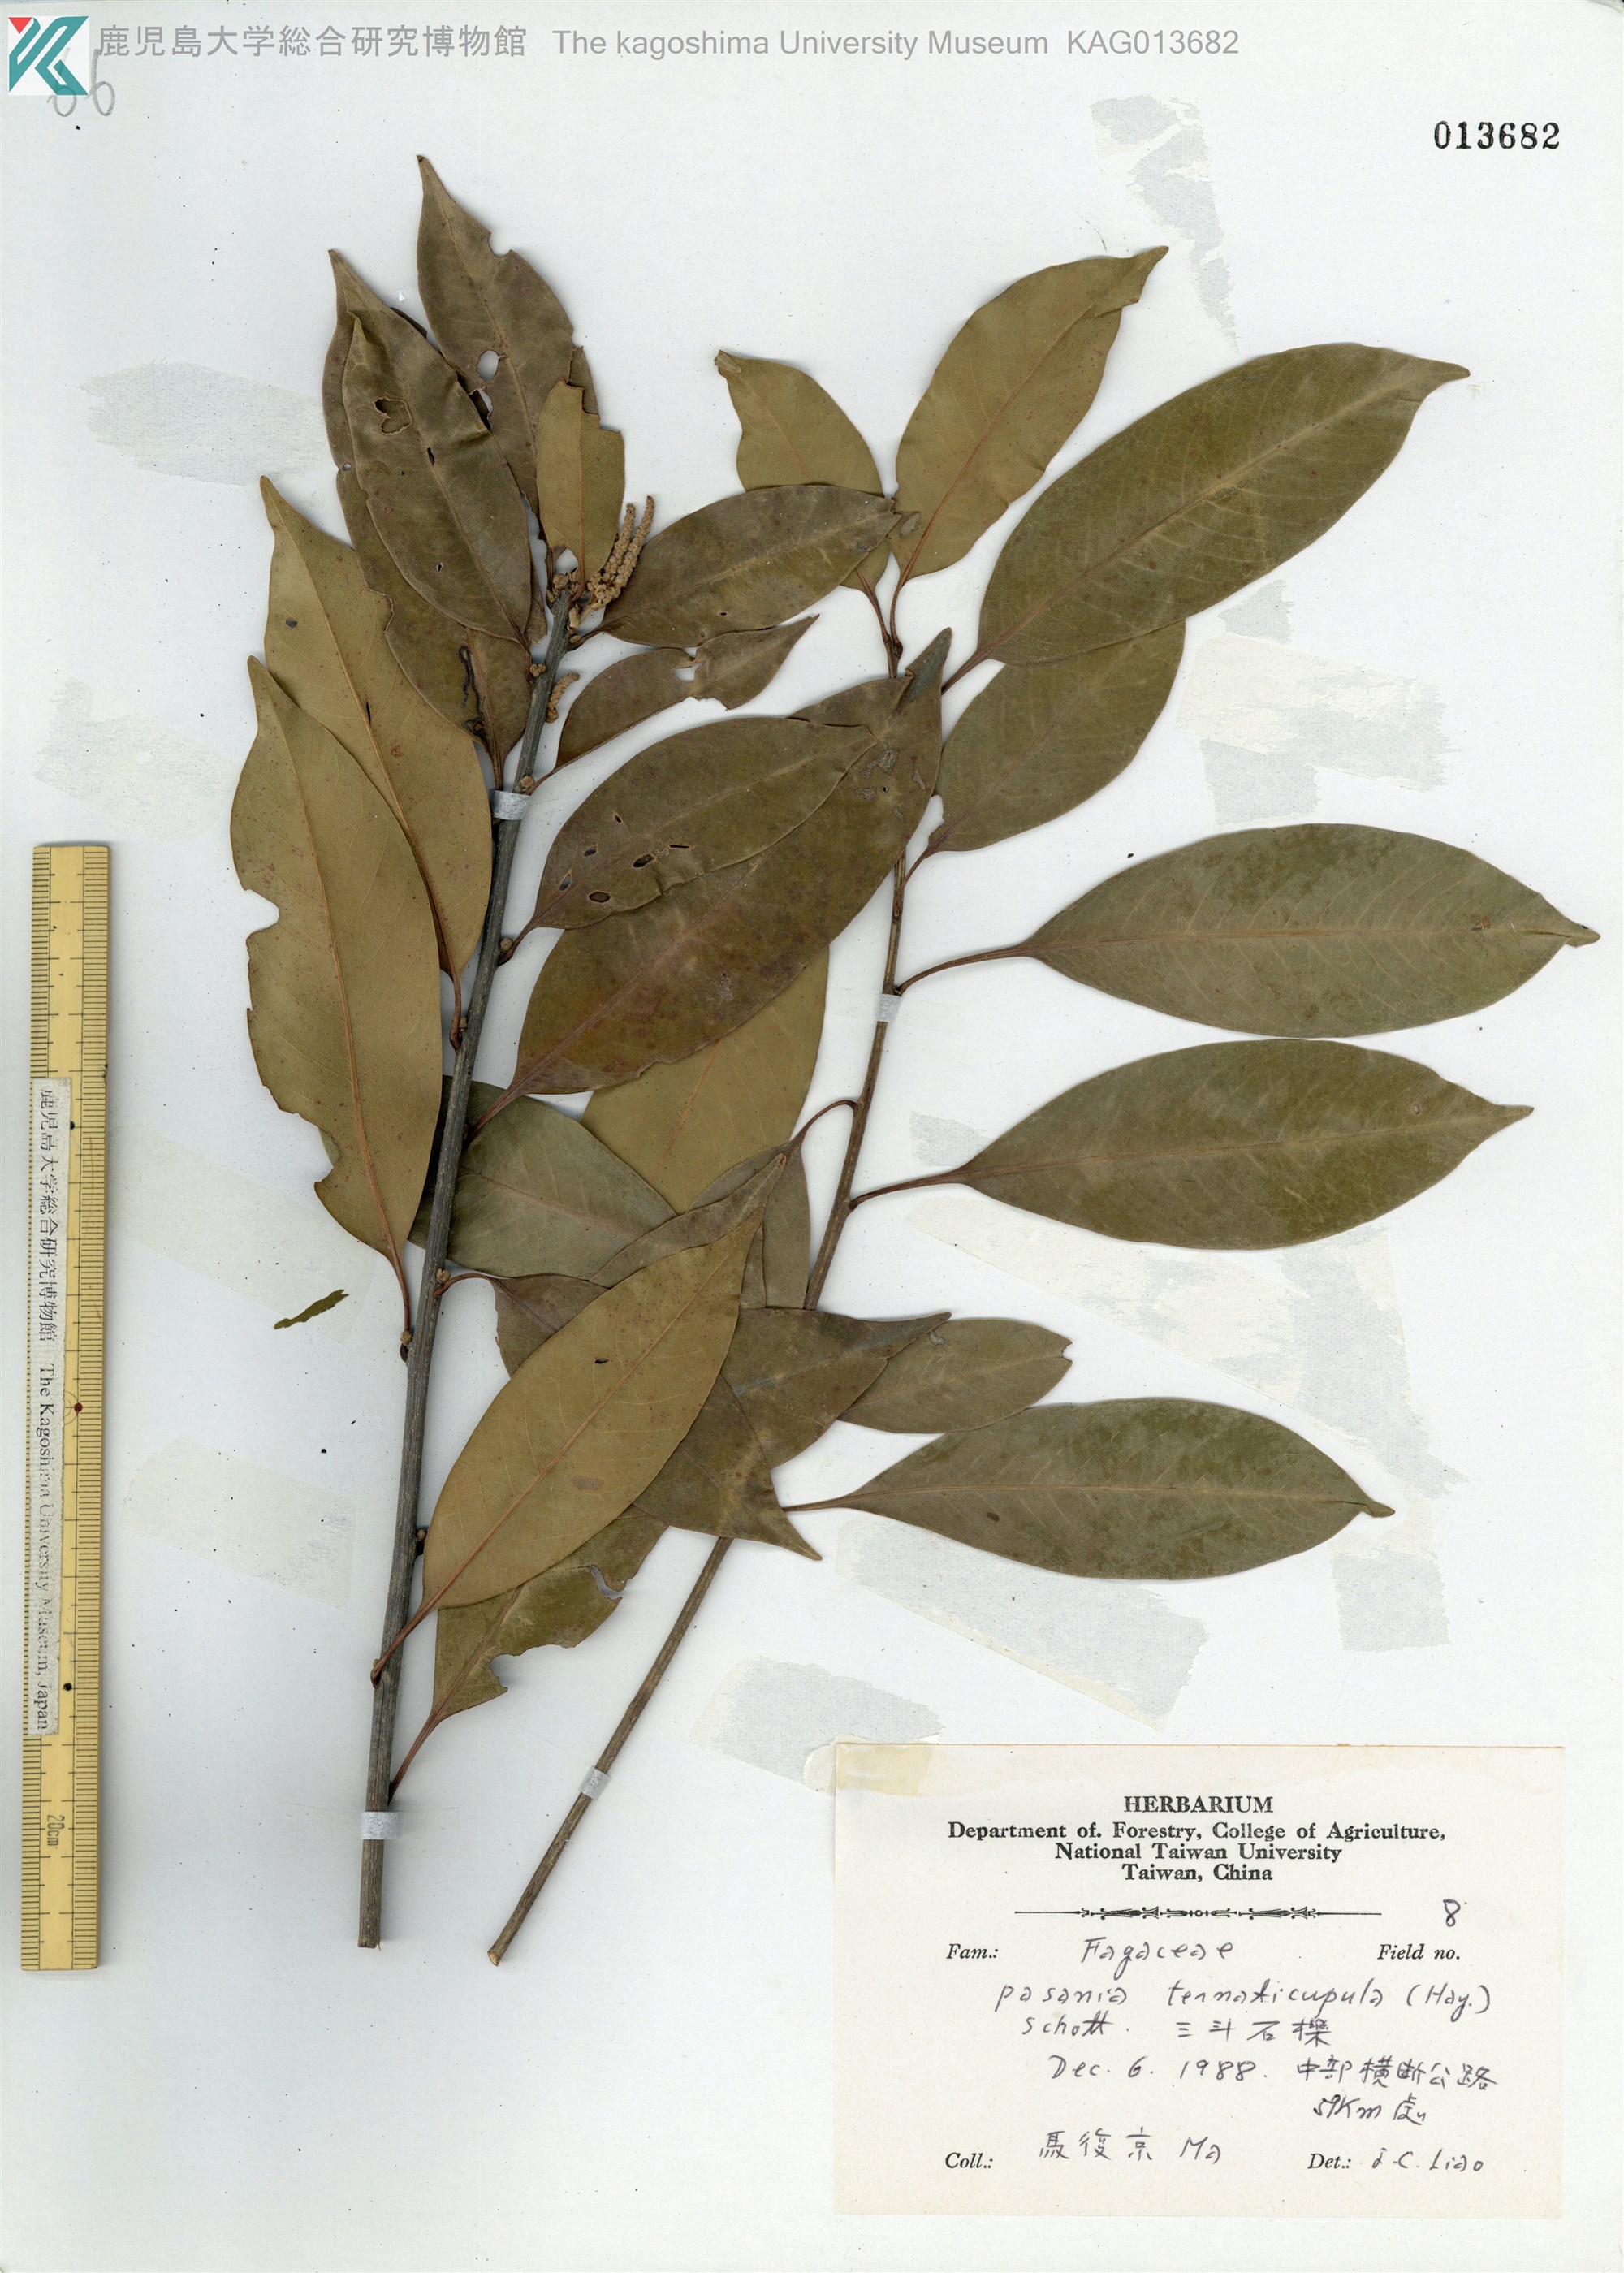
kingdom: Plantae
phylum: Tracheophyta
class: Magnoliopsida
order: Fagales
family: Fagaceae
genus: Lithocarpus
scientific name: Lithocarpus hancei
